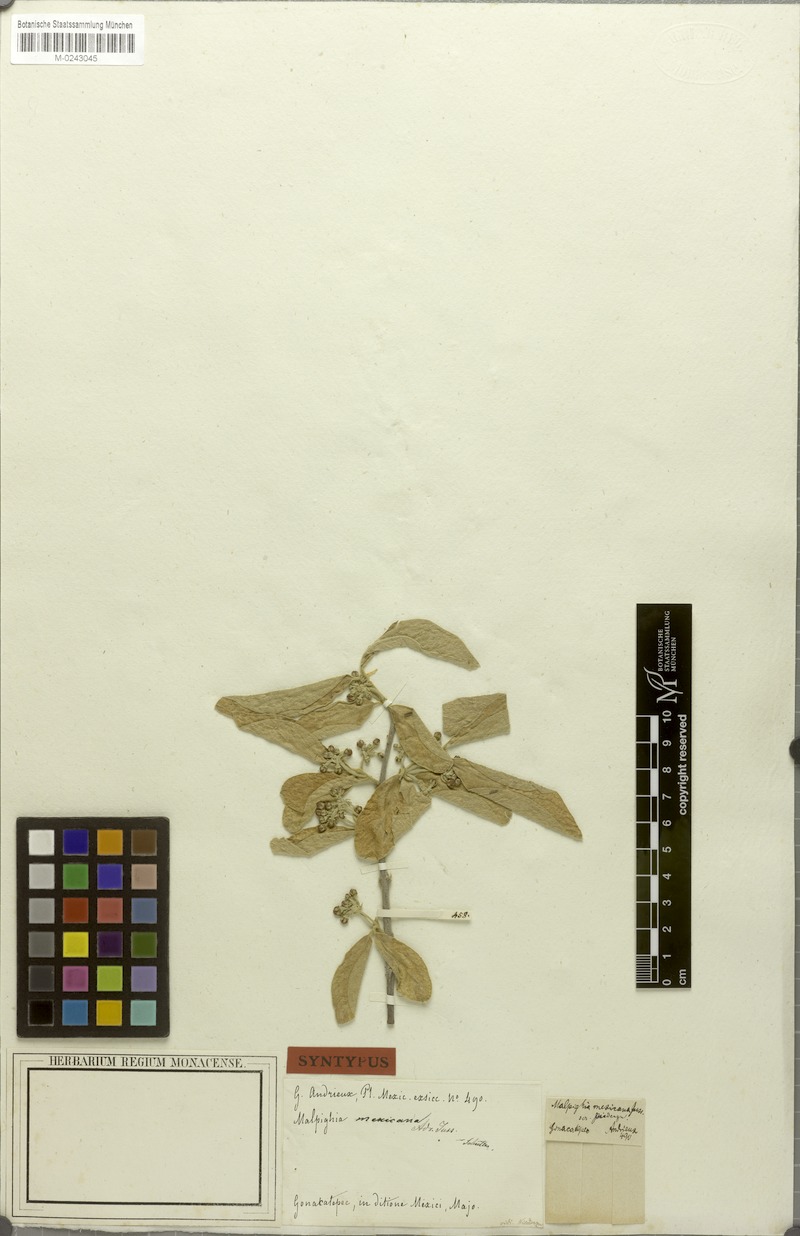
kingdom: Plantae
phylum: Tracheophyta
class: Magnoliopsida
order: Malpighiales
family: Malpighiaceae
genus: Malpighia
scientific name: Malpighia mexicana
